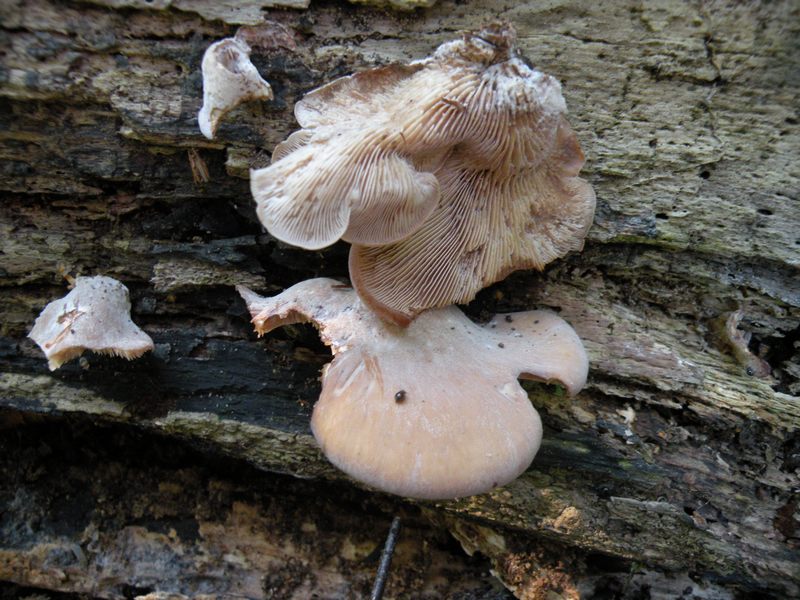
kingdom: Fungi
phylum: Basidiomycota
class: Agaricomycetes
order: Russulales
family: Auriscalpiaceae
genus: Lentinellus
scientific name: Lentinellus ursinus
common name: børstehåret savbladhat
